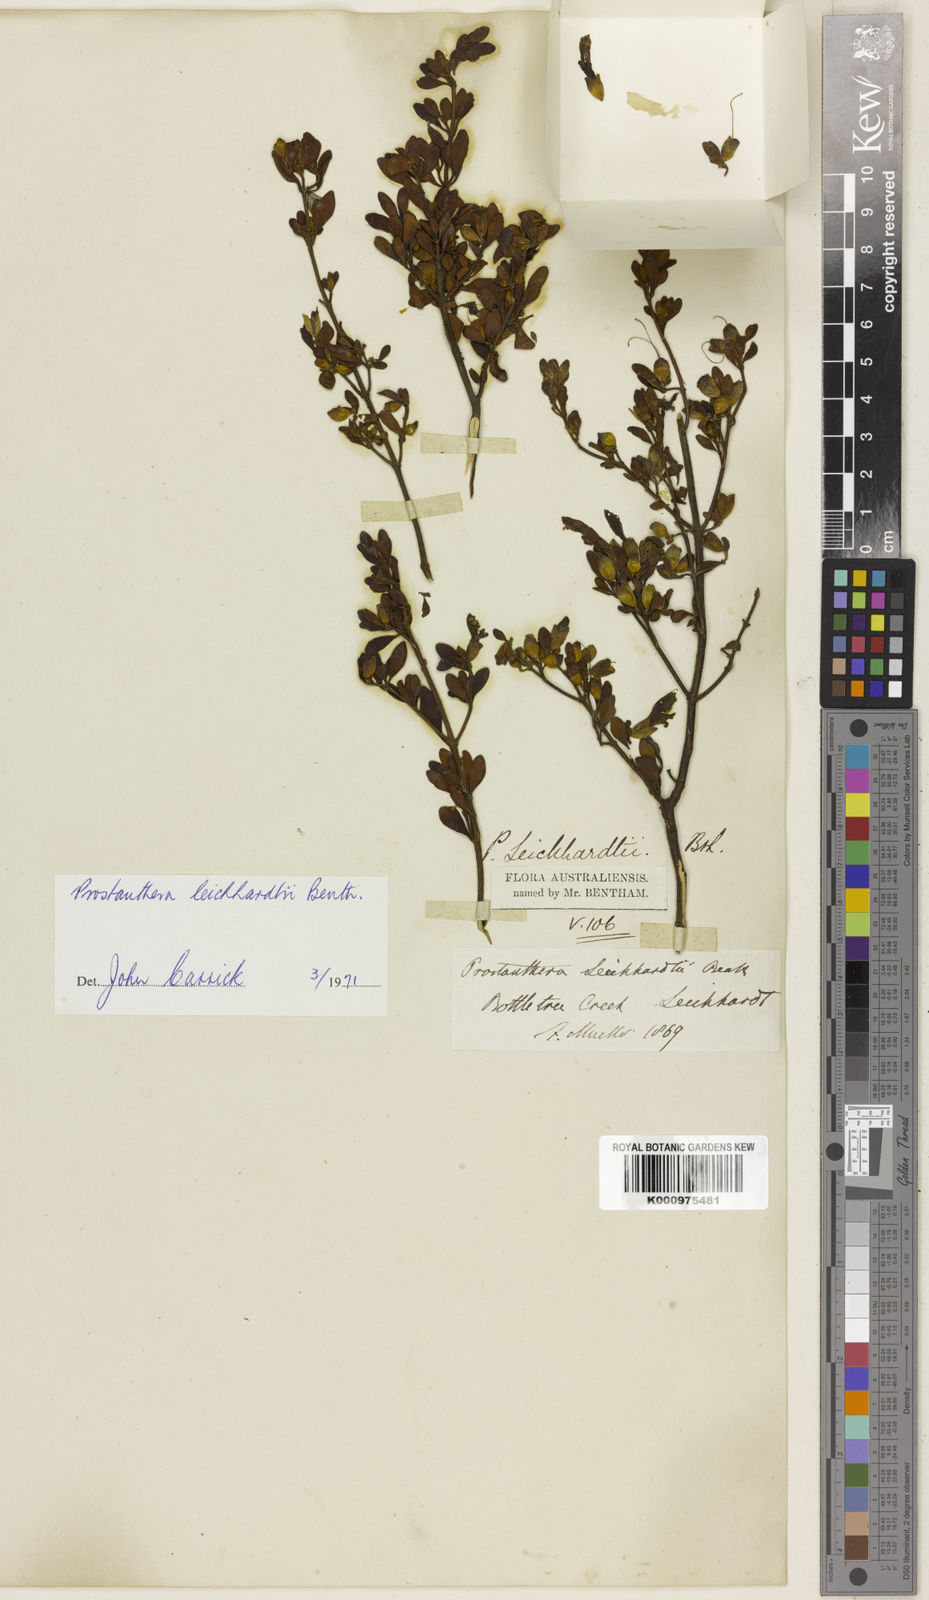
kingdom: Plantae
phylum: Tracheophyta
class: Magnoliopsida
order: Lamiales
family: Lamiaceae
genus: Prostanthera
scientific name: Prostanthera ringens
